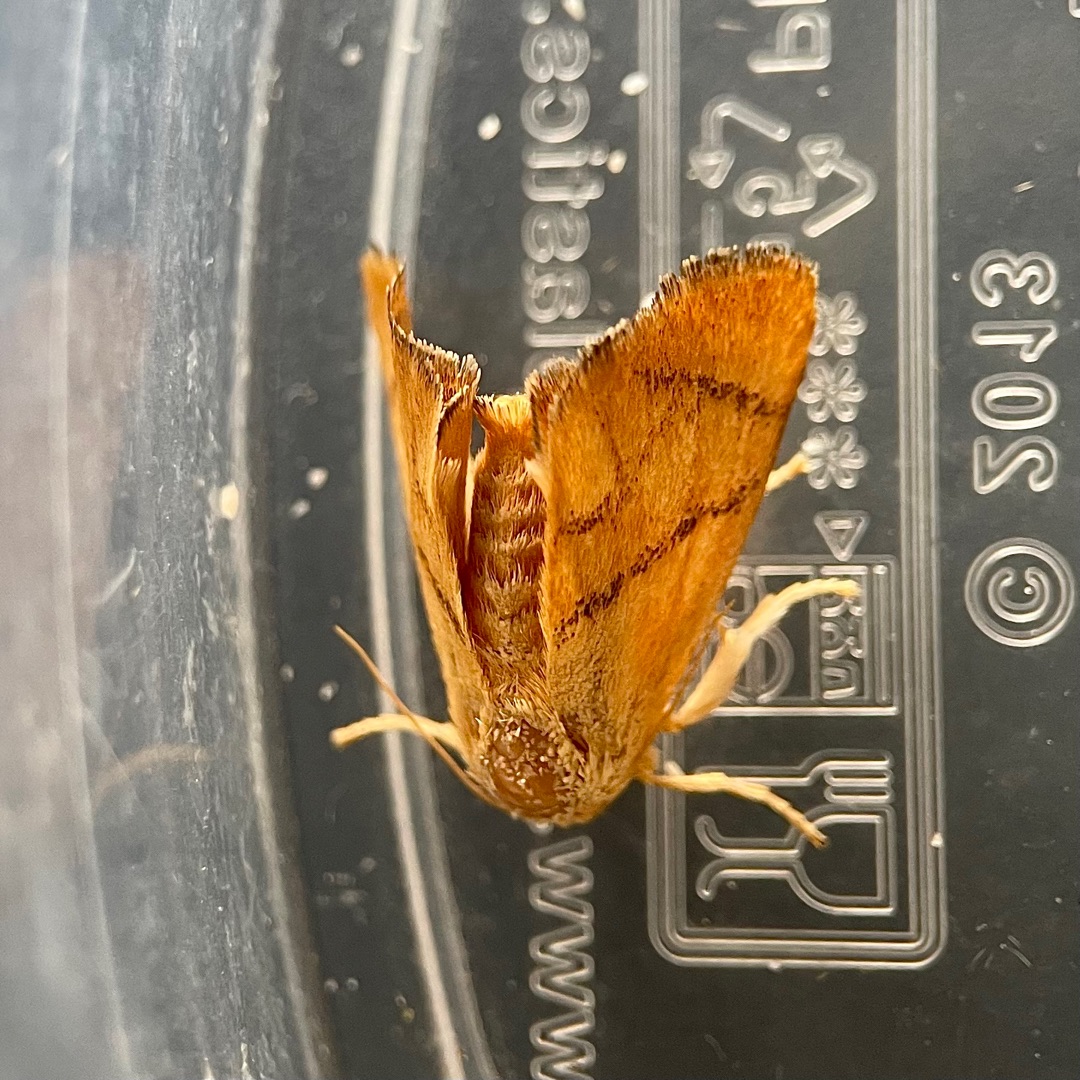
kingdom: Animalia
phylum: Arthropoda
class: Insecta
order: Lepidoptera
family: Limacodidae
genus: Apoda
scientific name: Apoda limacodes
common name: Stor sneglespinder
